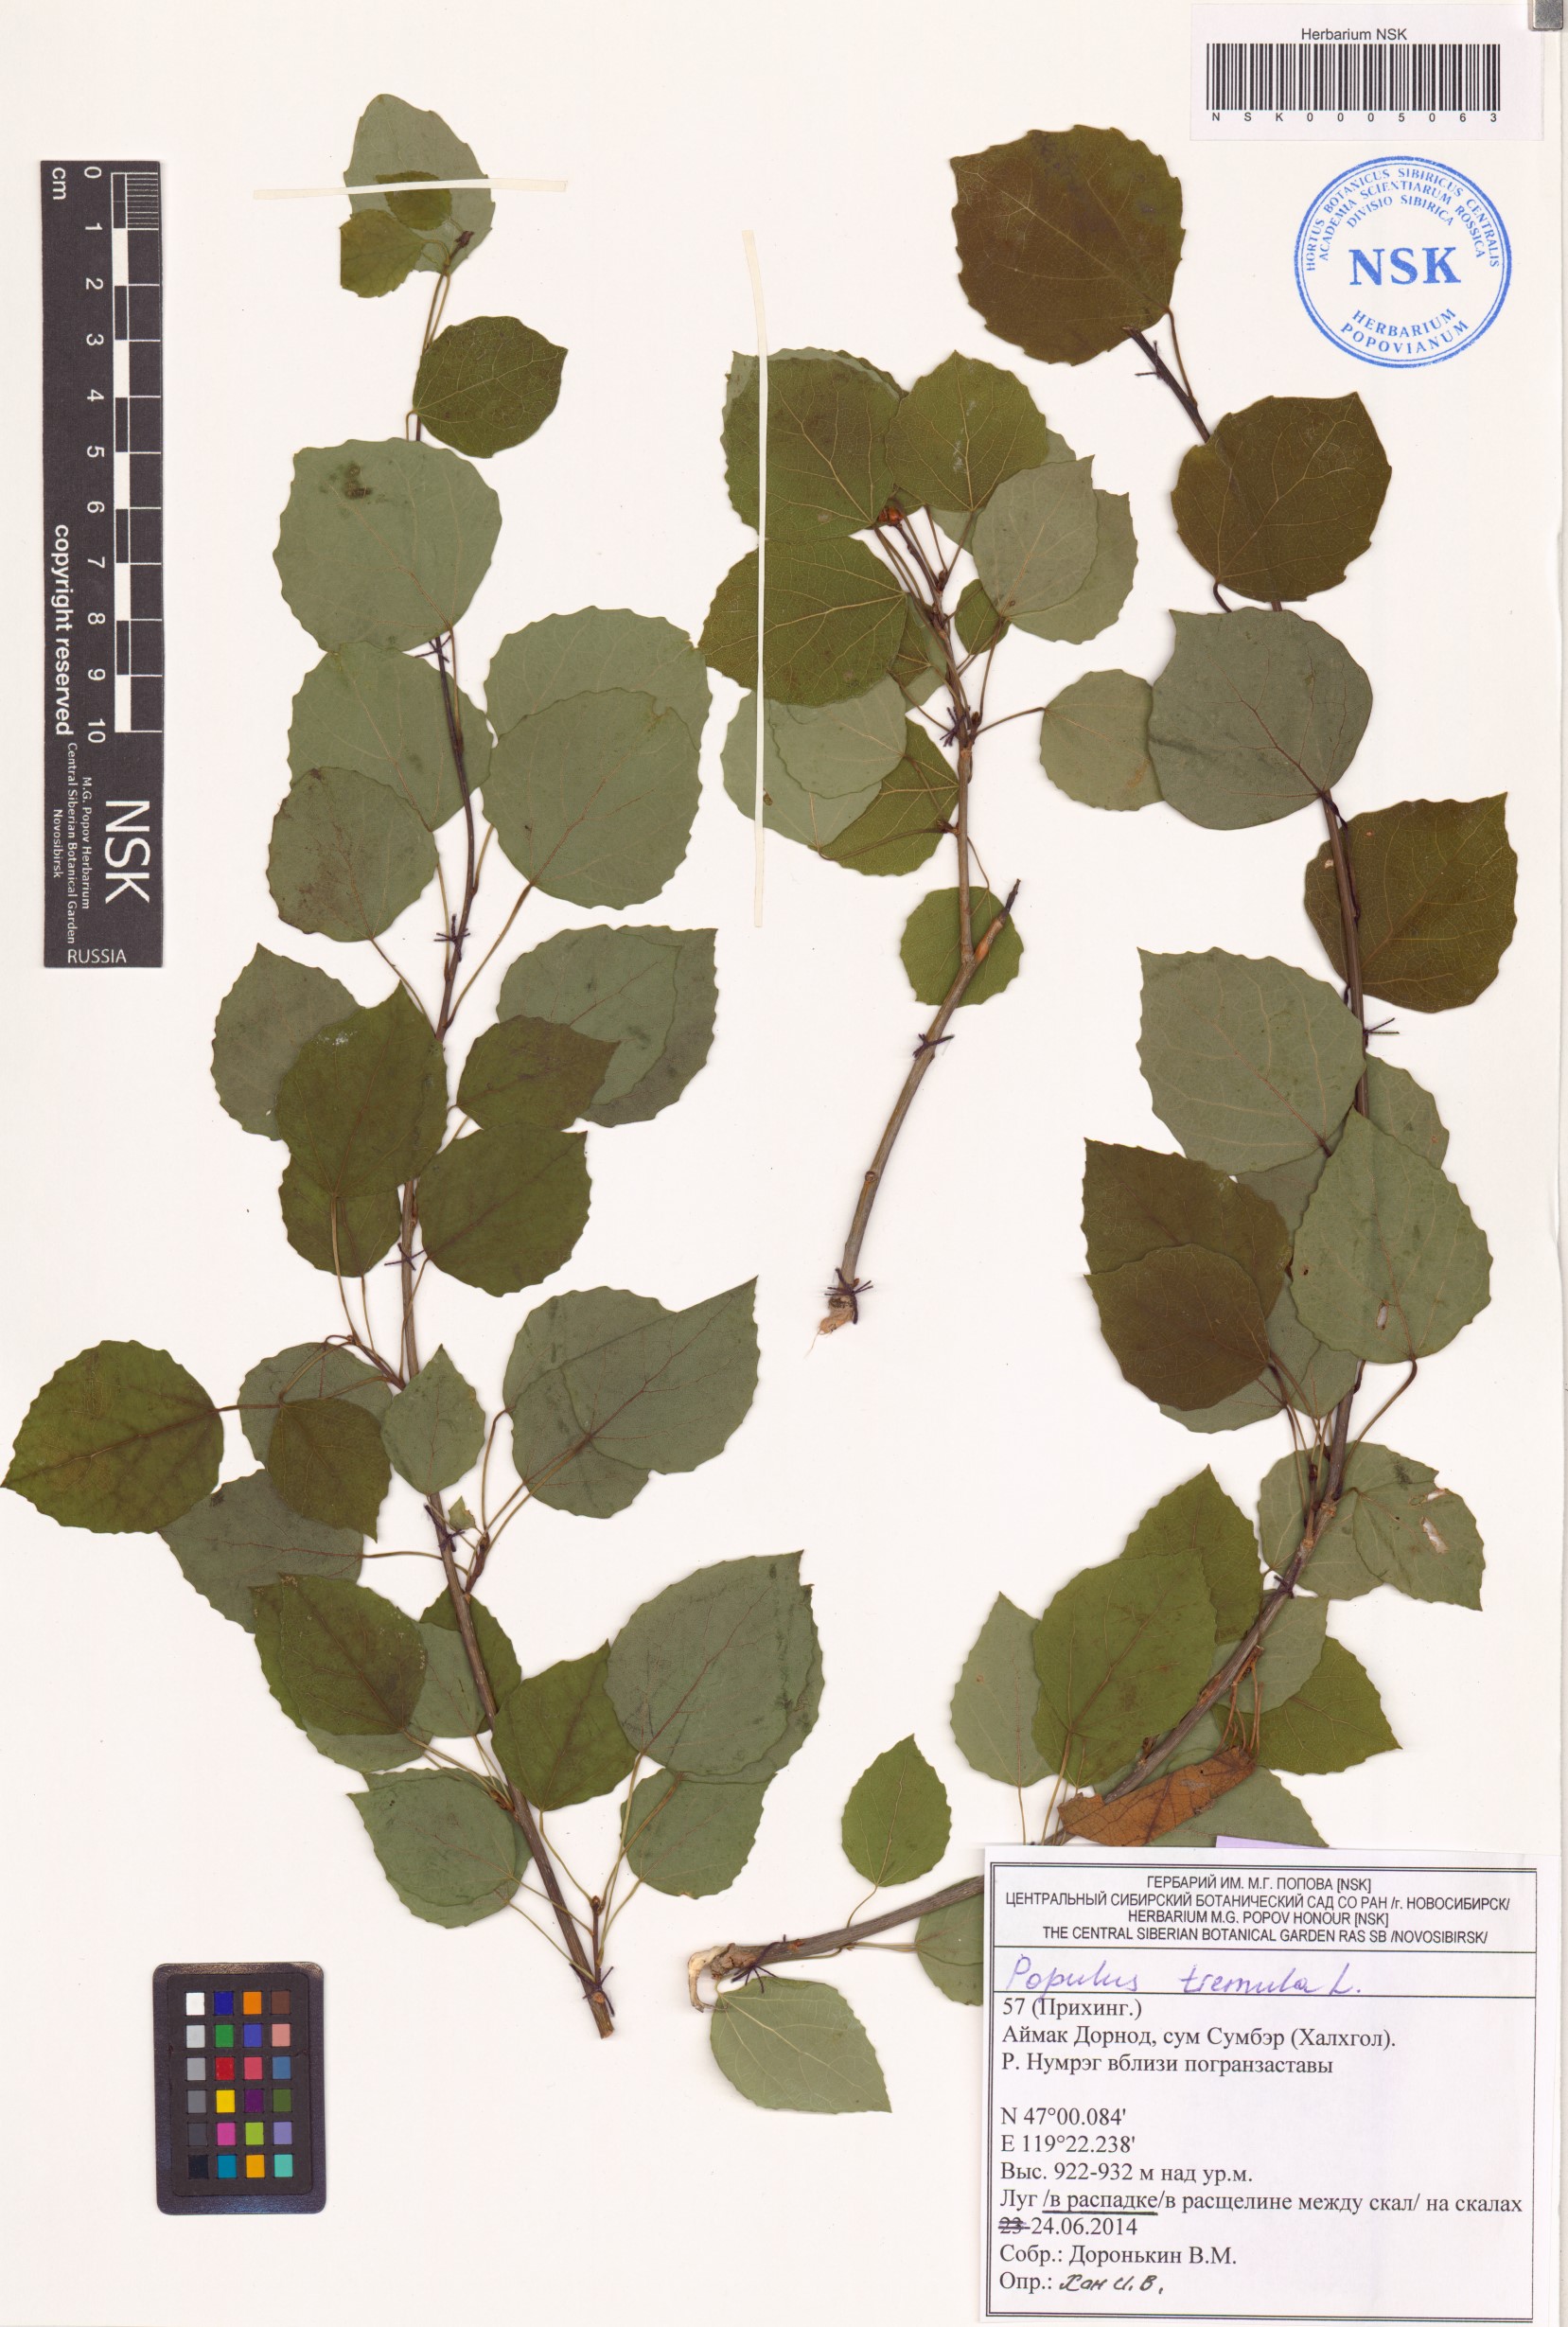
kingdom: Plantae
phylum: Tracheophyta
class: Magnoliopsida
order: Malpighiales
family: Salicaceae
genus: Populus
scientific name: Populus tremula
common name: European aspen
